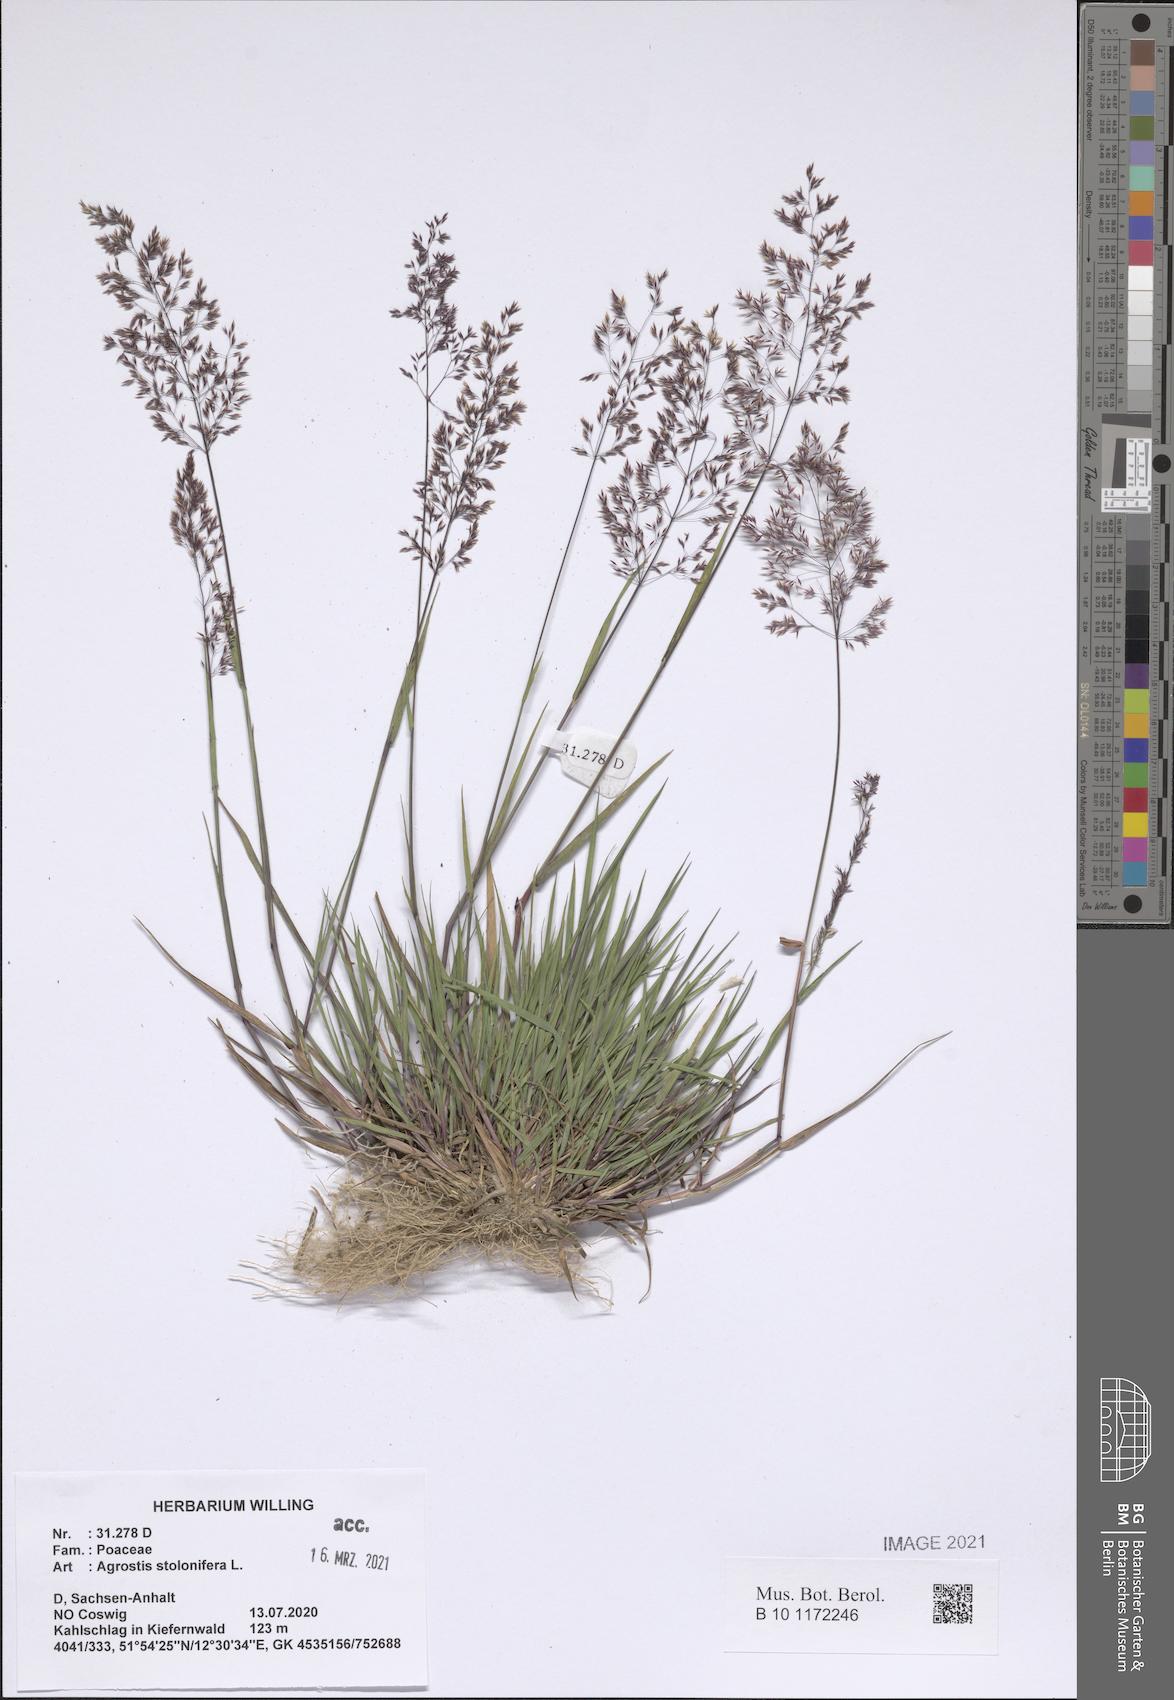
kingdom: Plantae
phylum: Tracheophyta
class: Liliopsida
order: Poales
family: Poaceae
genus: Agrostis
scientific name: Agrostis stolonifera
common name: Creeping bentgrass
